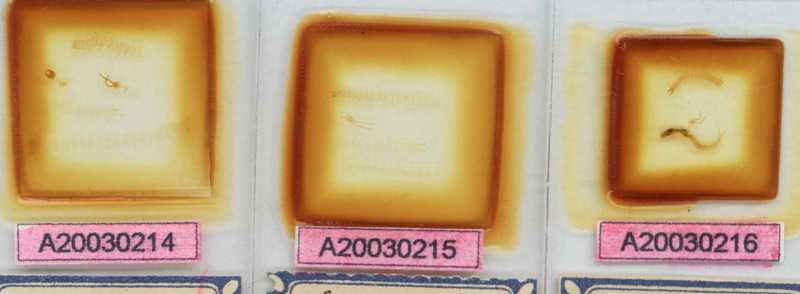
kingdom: Animalia
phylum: Arthropoda
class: Chilopoda
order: Geophilomorpha
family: Schendylidae
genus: Schendyla
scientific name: Schendyla carniolensis
